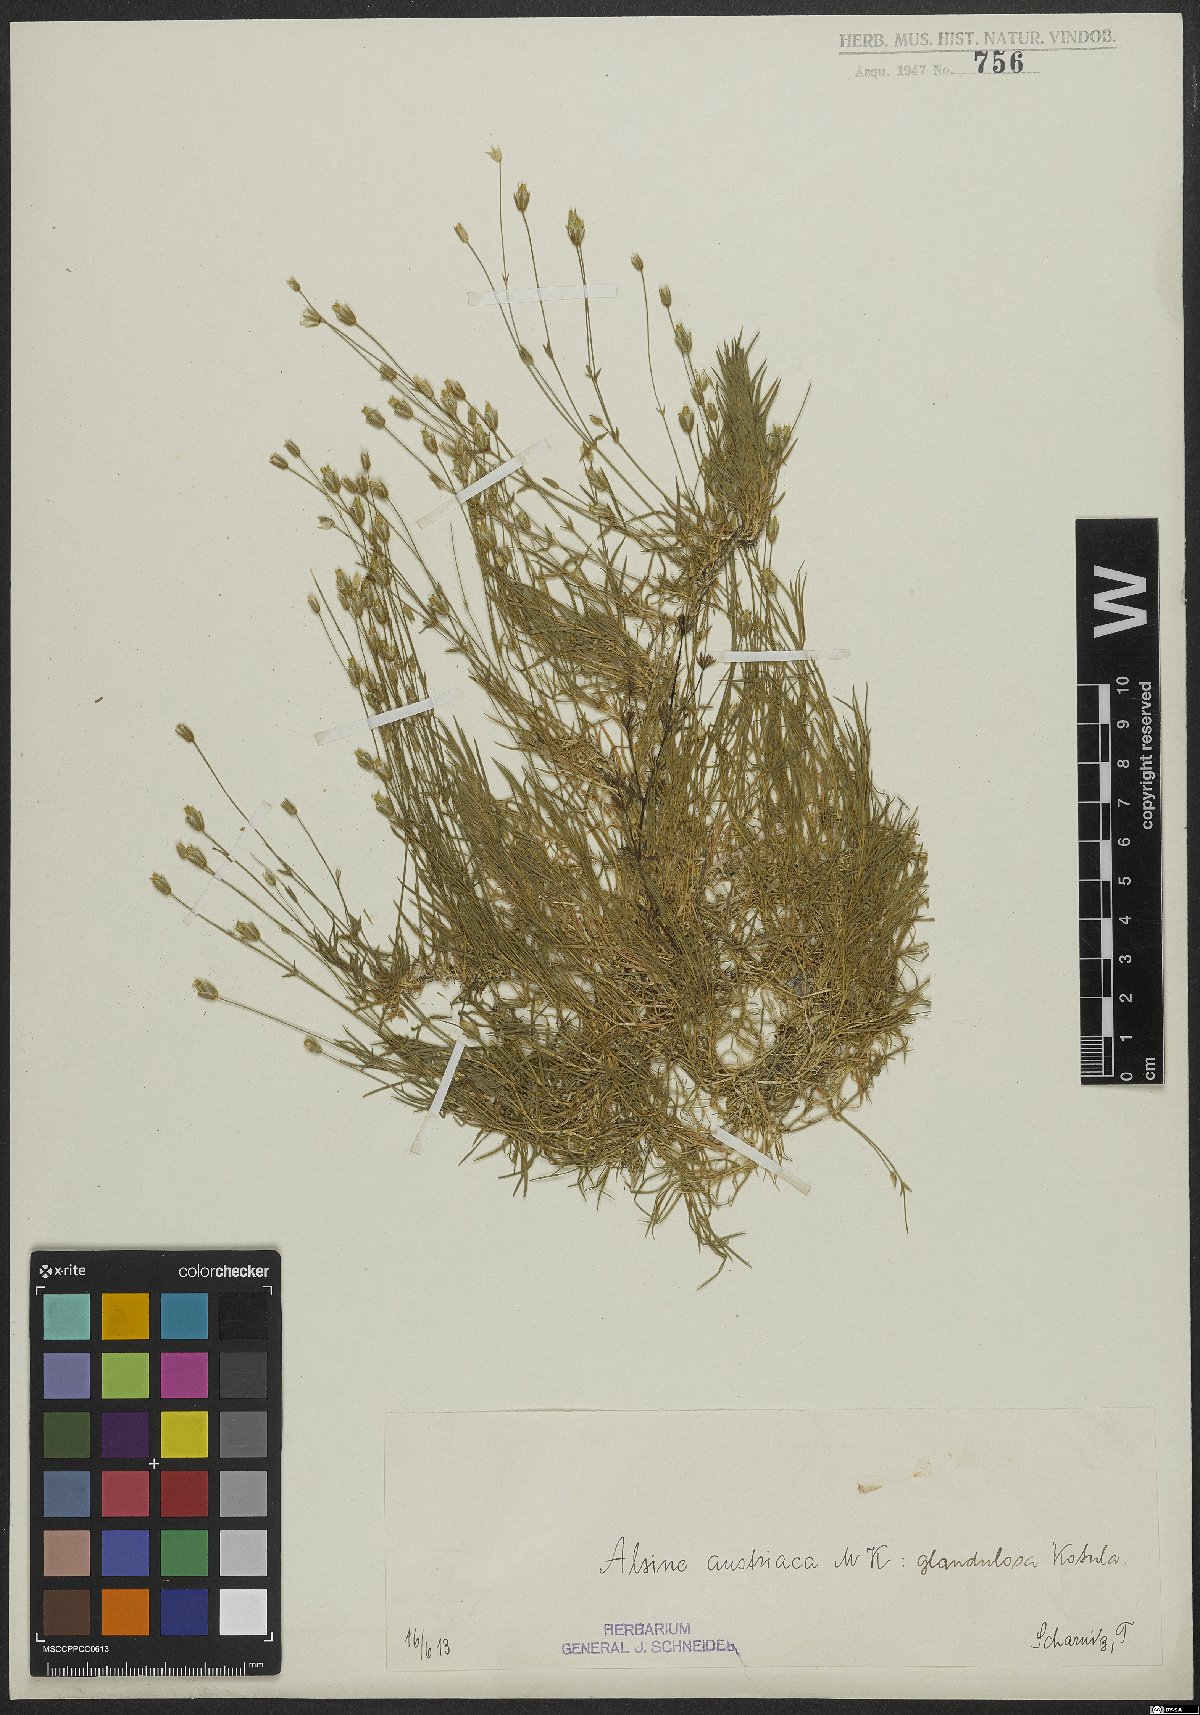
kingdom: Plantae
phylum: Tracheophyta
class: Magnoliopsida
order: Caryophyllales
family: Caryophyllaceae
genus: Sabulina
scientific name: Sabulina austriaca
